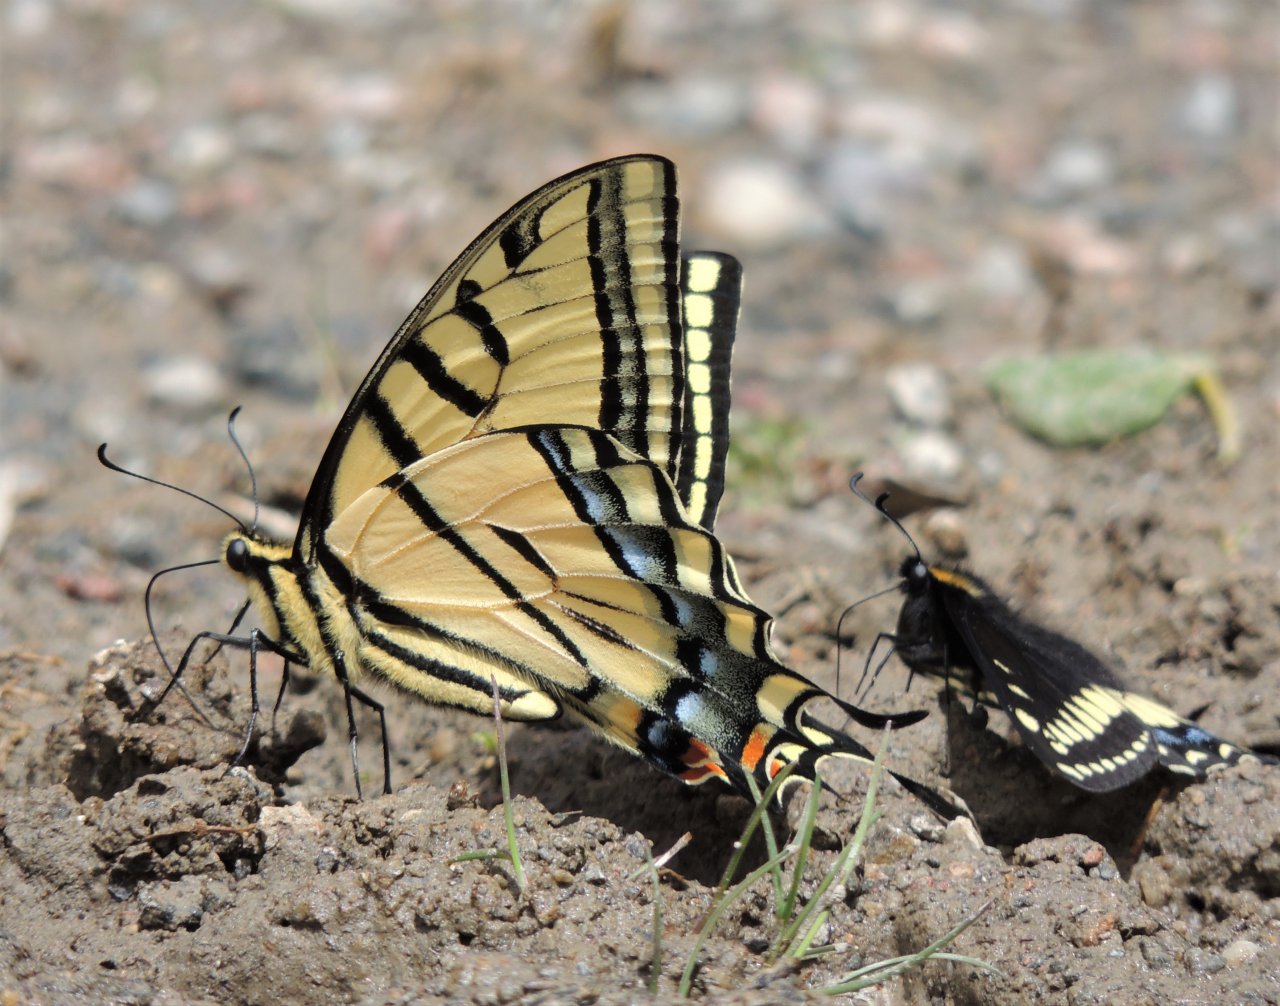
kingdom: Animalia
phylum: Arthropoda
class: Insecta
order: Lepidoptera
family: Papilionidae
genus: Papilio
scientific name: Papilio multicaudata
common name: Two-tailed Swallowtail
